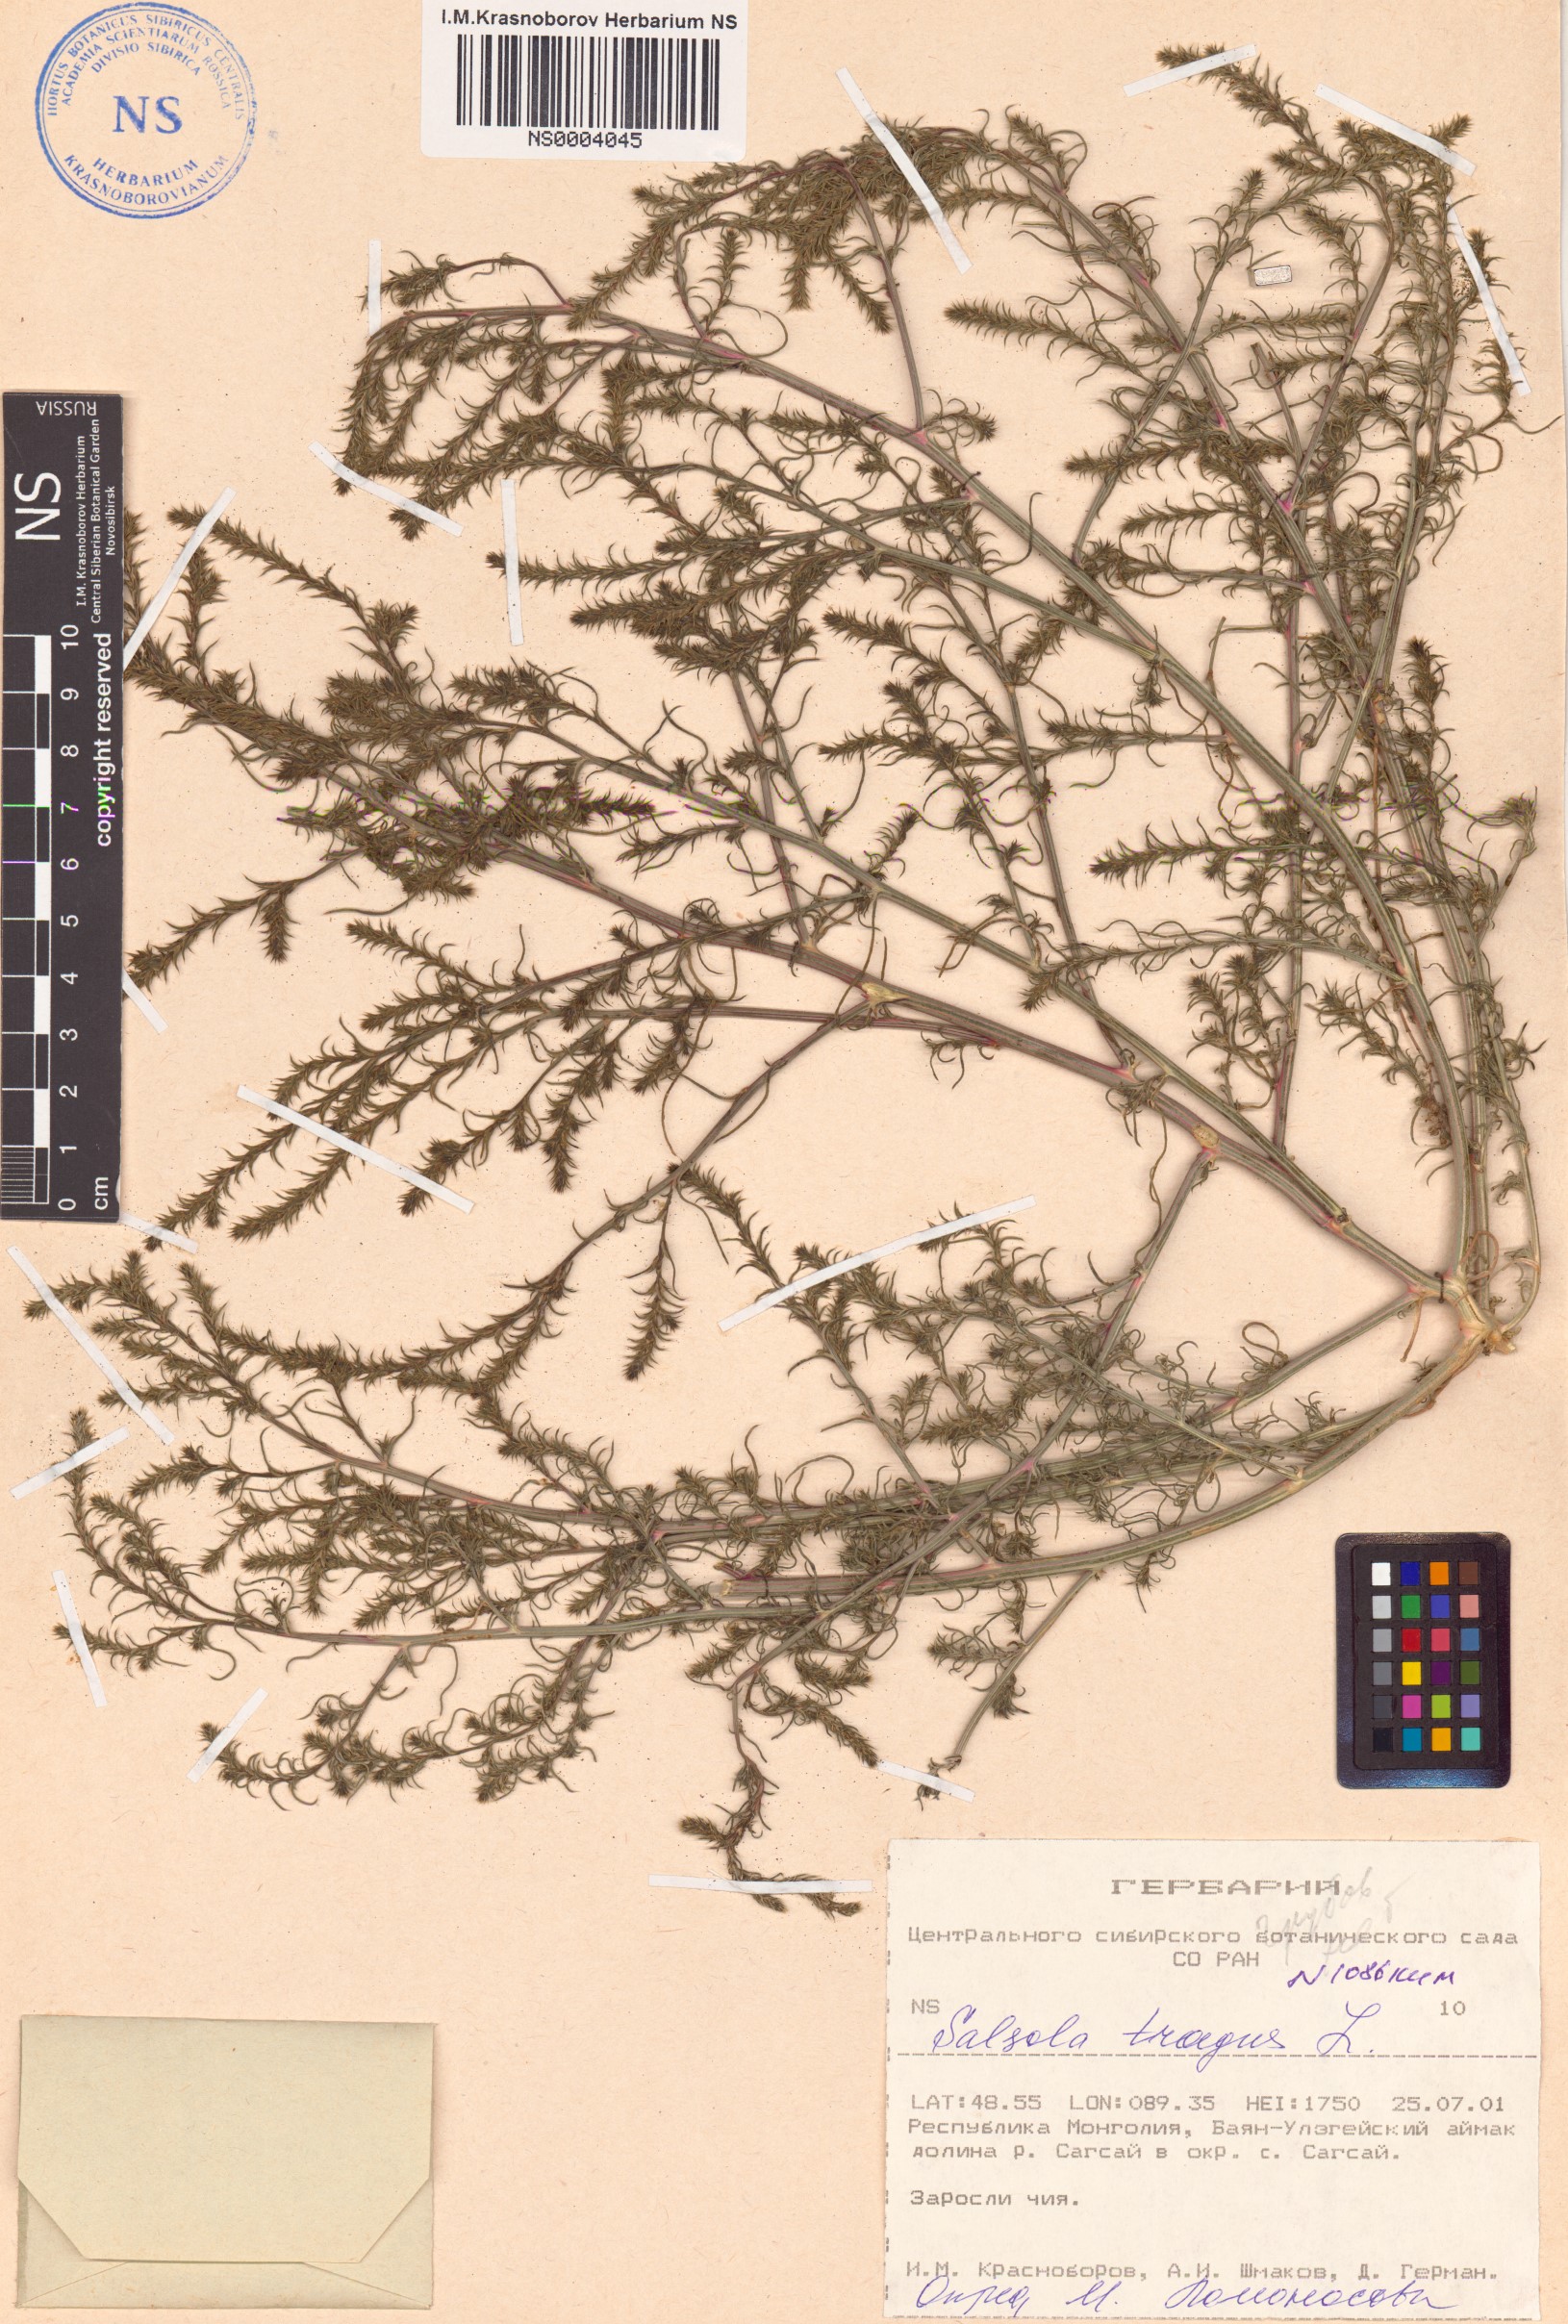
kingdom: Plantae
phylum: Tracheophyta
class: Magnoliopsida
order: Caryophyllales
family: Amaranthaceae
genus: Salsola
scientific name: Salsola tragus
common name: Prickly russian thistle
